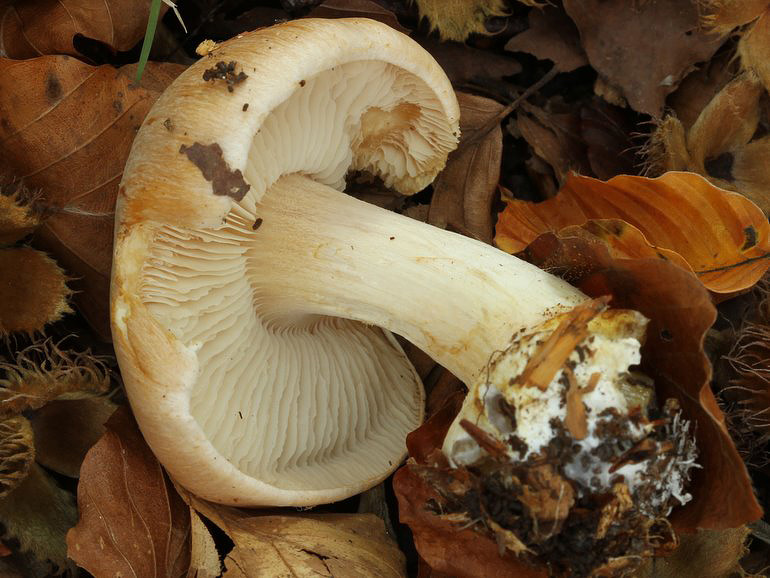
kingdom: Fungi
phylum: Basidiomycota
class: Agaricomycetes
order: Agaricales
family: Cortinariaceae
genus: Thaxterogaster
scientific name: Thaxterogaster talus
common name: knogle-slørhat
